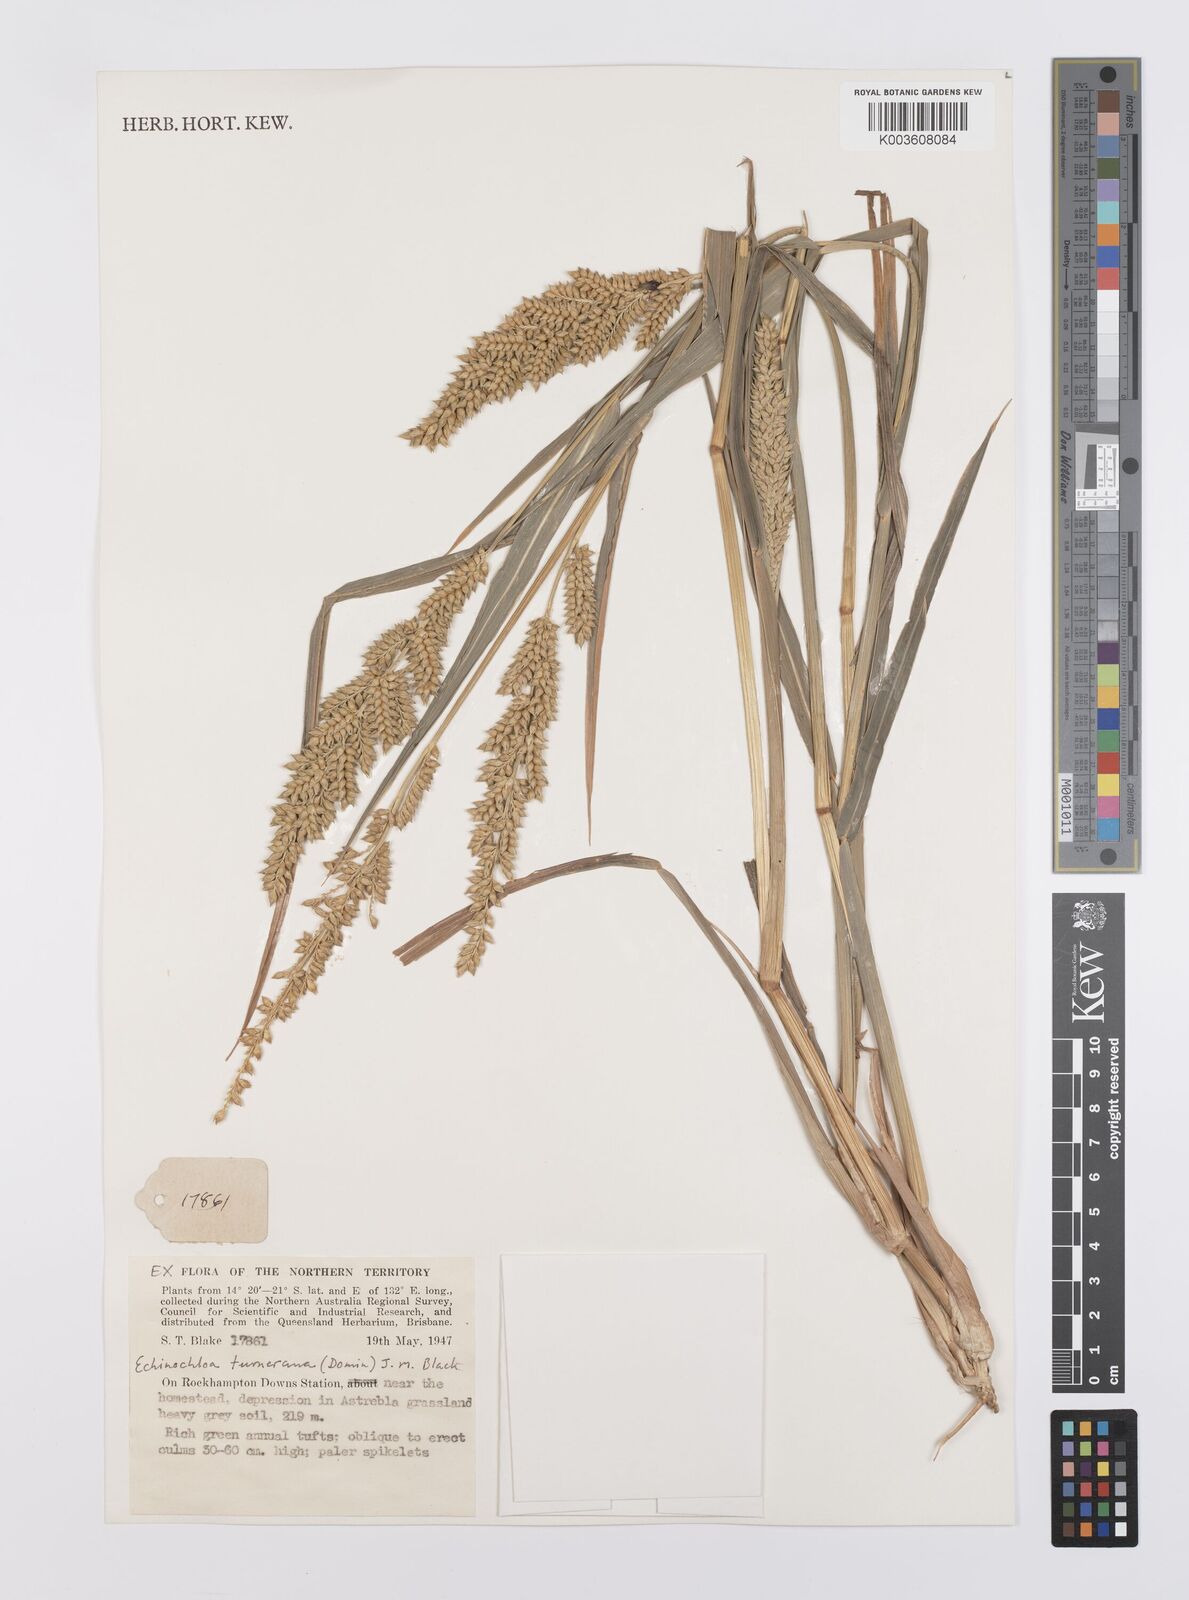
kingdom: Plantae
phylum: Tracheophyta
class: Liliopsida
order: Poales
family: Poaceae
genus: Echinochloa
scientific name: Echinochloa turneriana
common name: Channel millet
